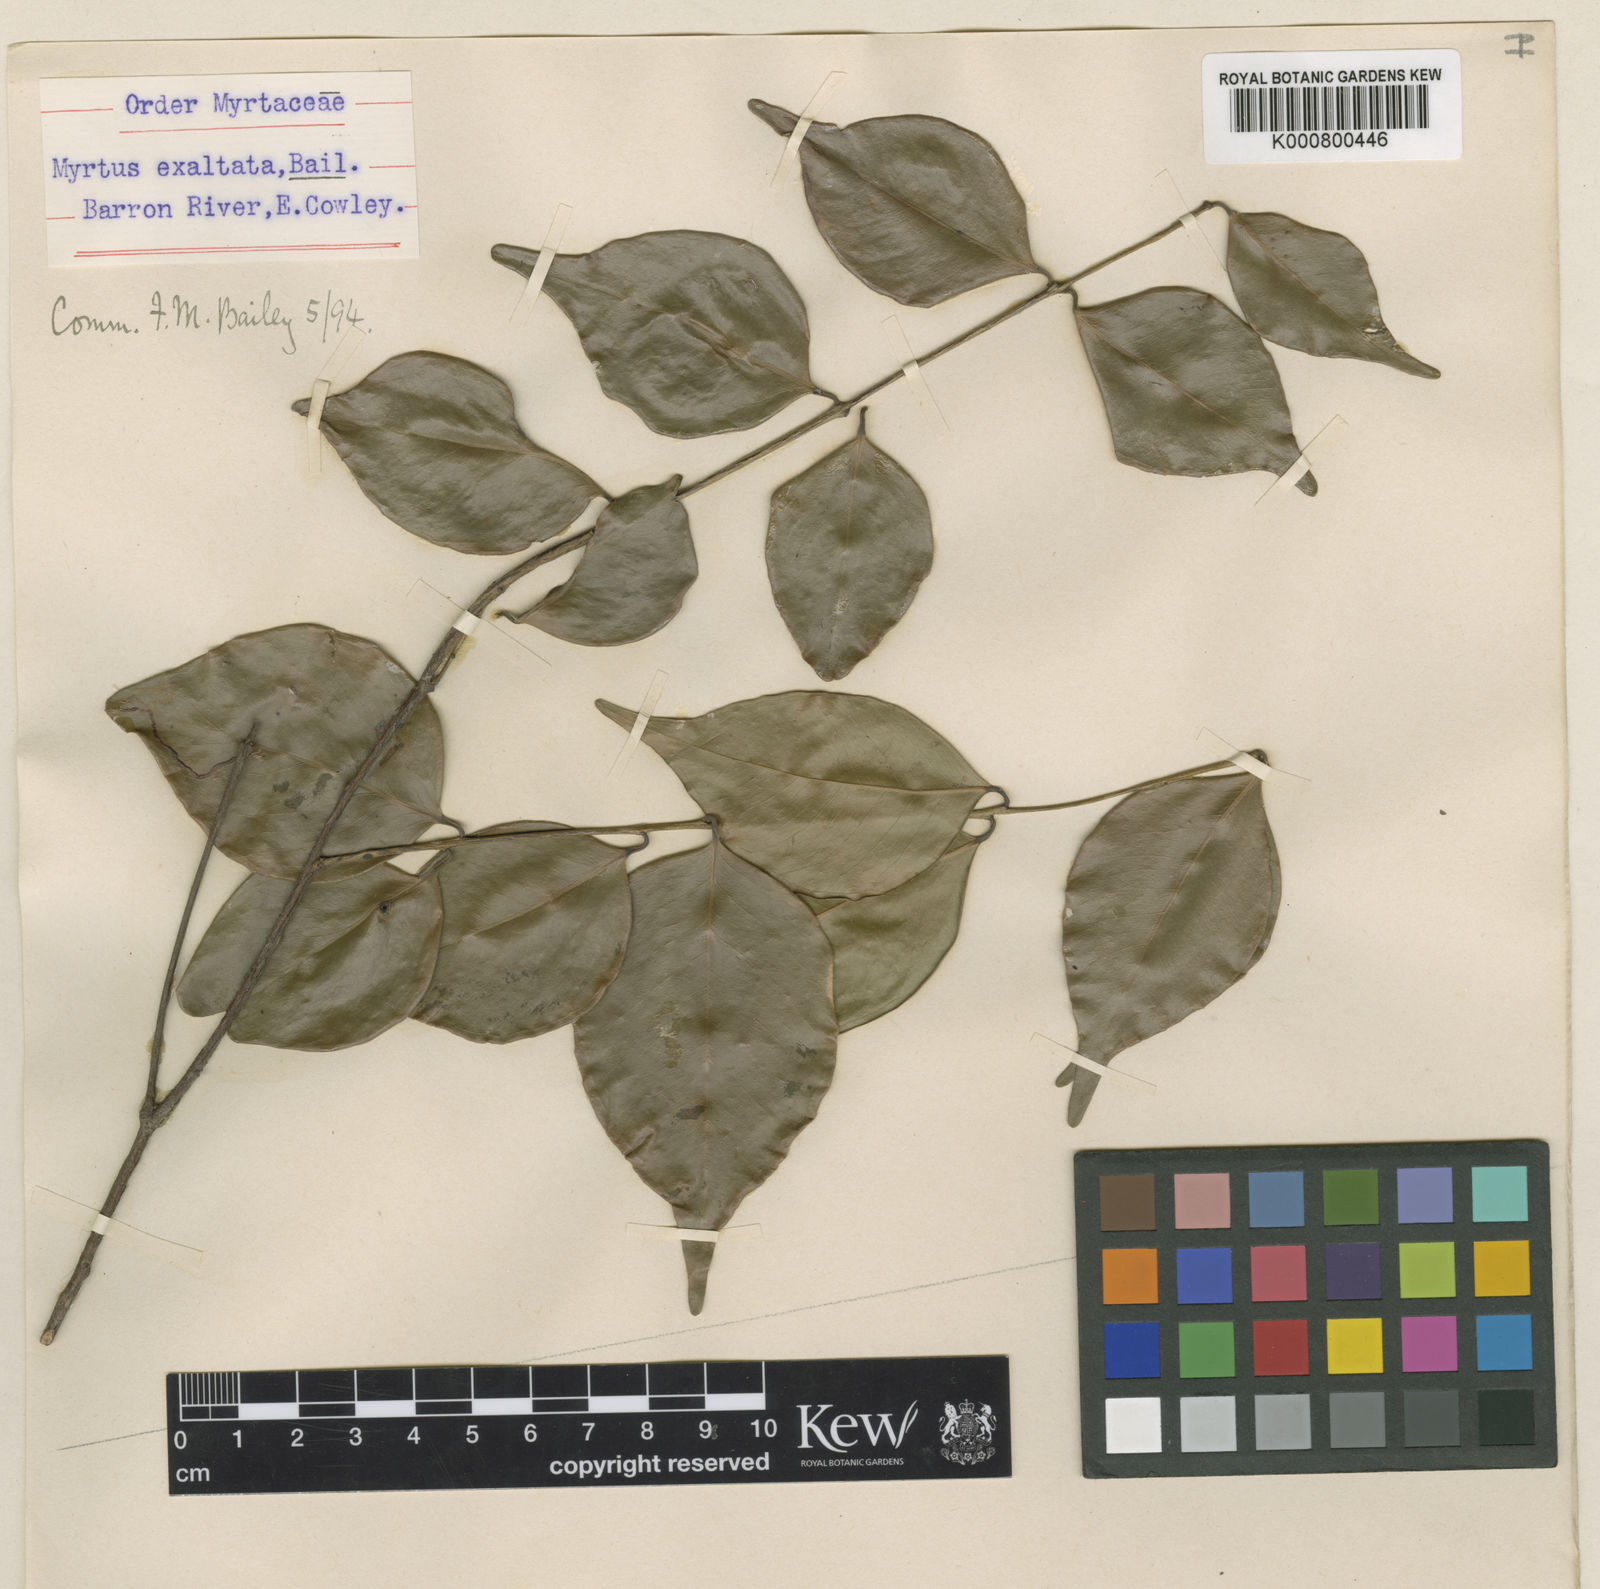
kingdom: Plantae
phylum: Tracheophyta
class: Magnoliopsida
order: Myrtales
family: Myrtaceae
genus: Syzygium
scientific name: Syzygium luehmannii
